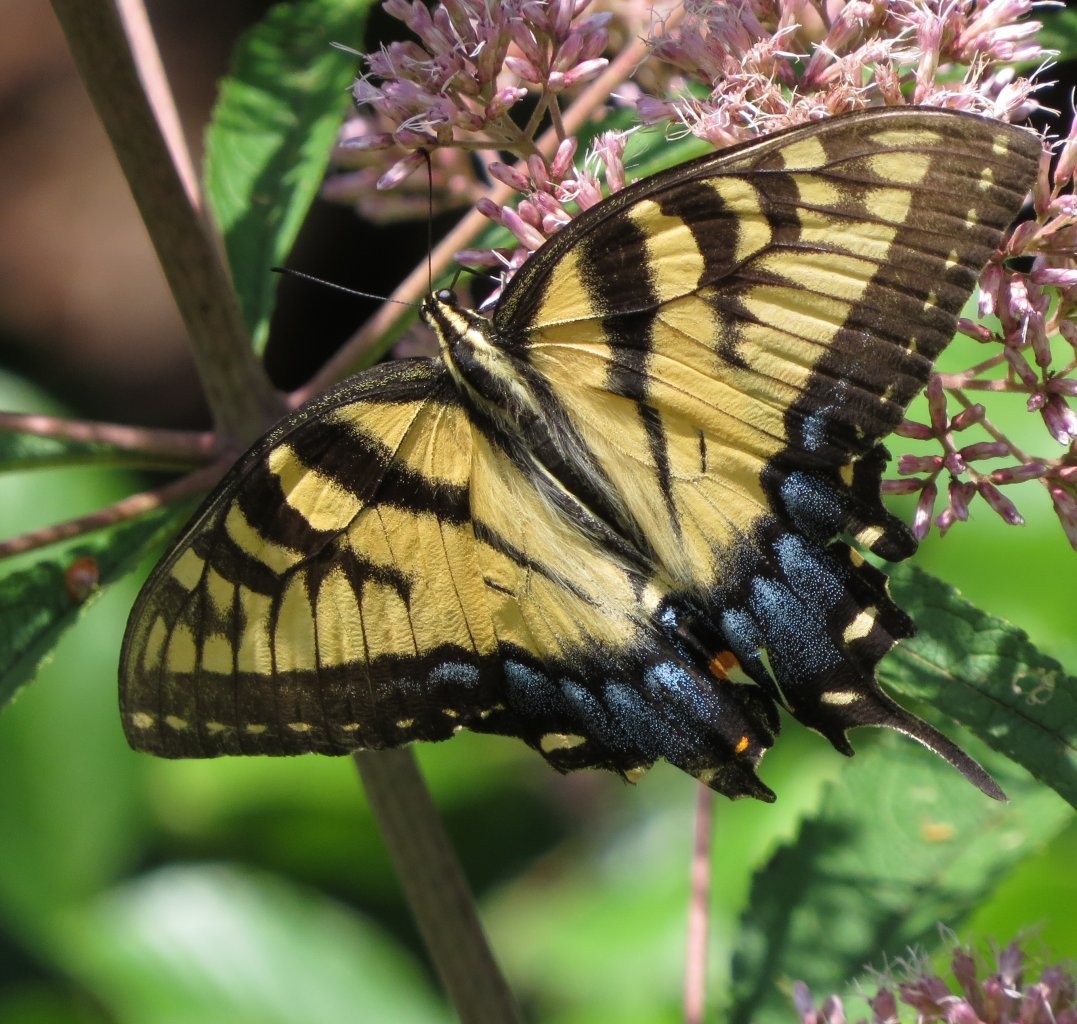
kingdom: Animalia
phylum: Arthropoda
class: Insecta
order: Lepidoptera
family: Papilionidae
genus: Pterourus
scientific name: Pterourus glaucus
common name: Eastern Tiger Swallowtail
